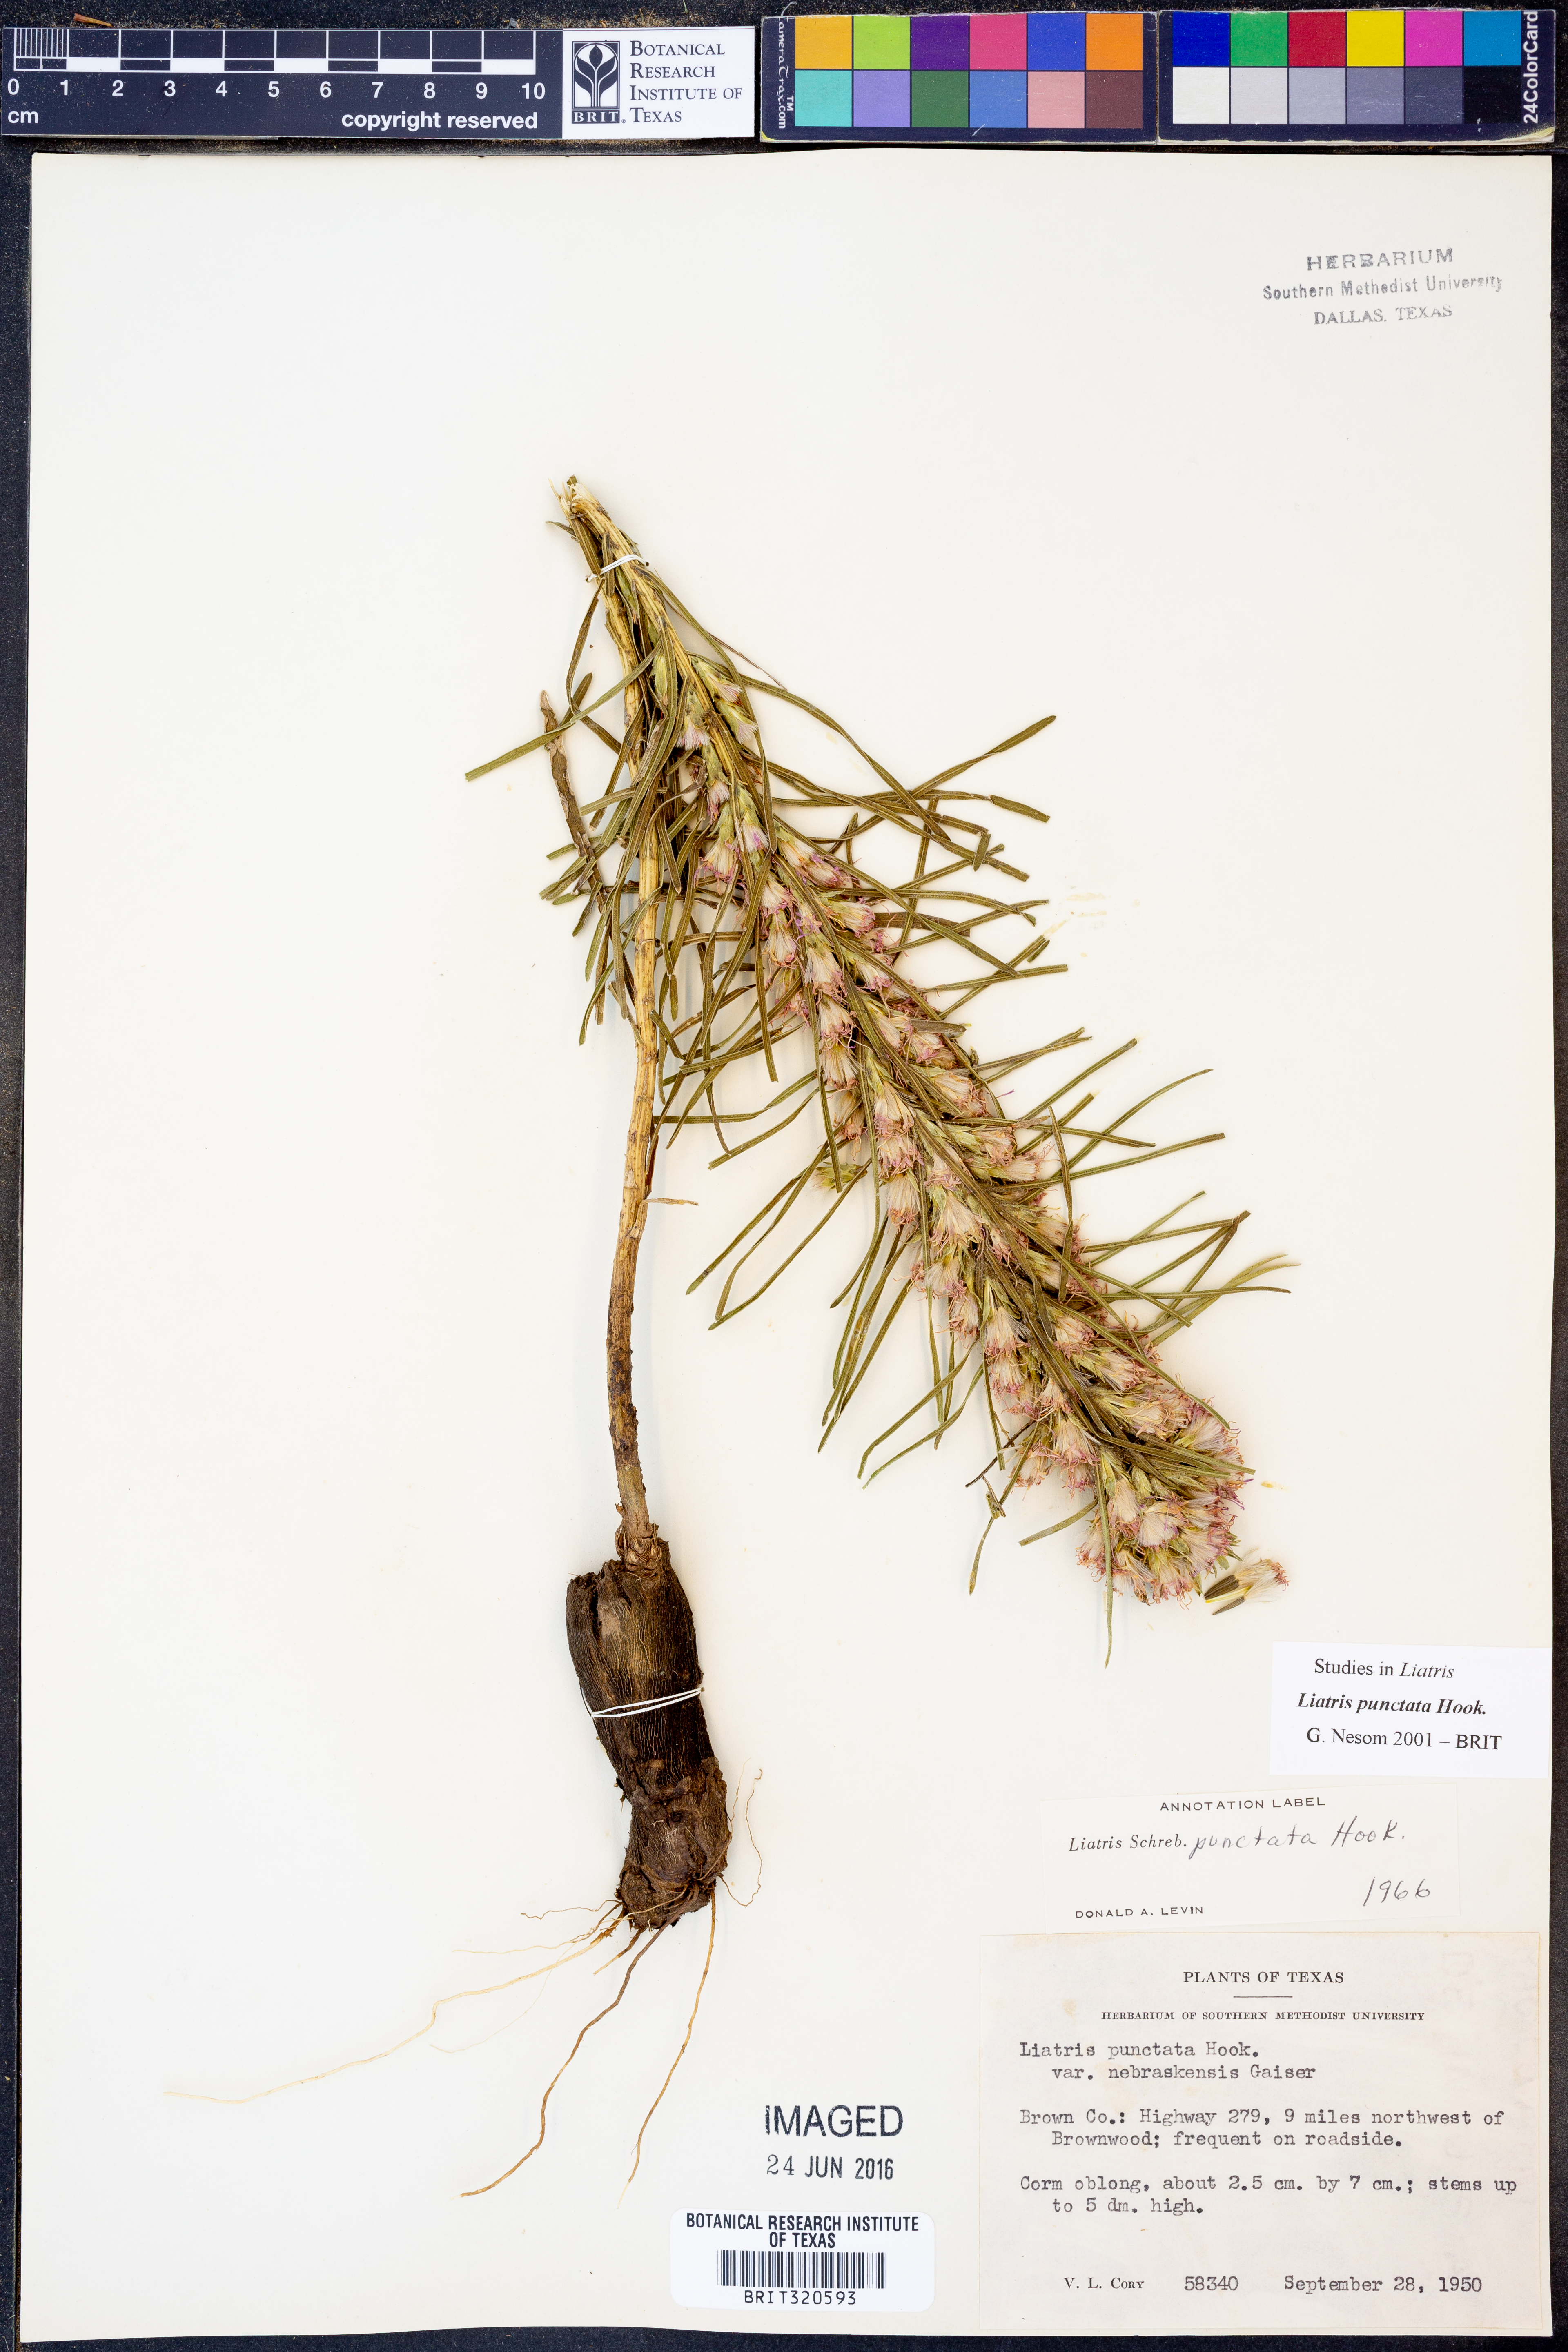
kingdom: Plantae
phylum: Tracheophyta
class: Magnoliopsida
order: Asterales
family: Asteraceae
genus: Liatris
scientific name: Liatris punctata
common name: Dotted gayfeather
